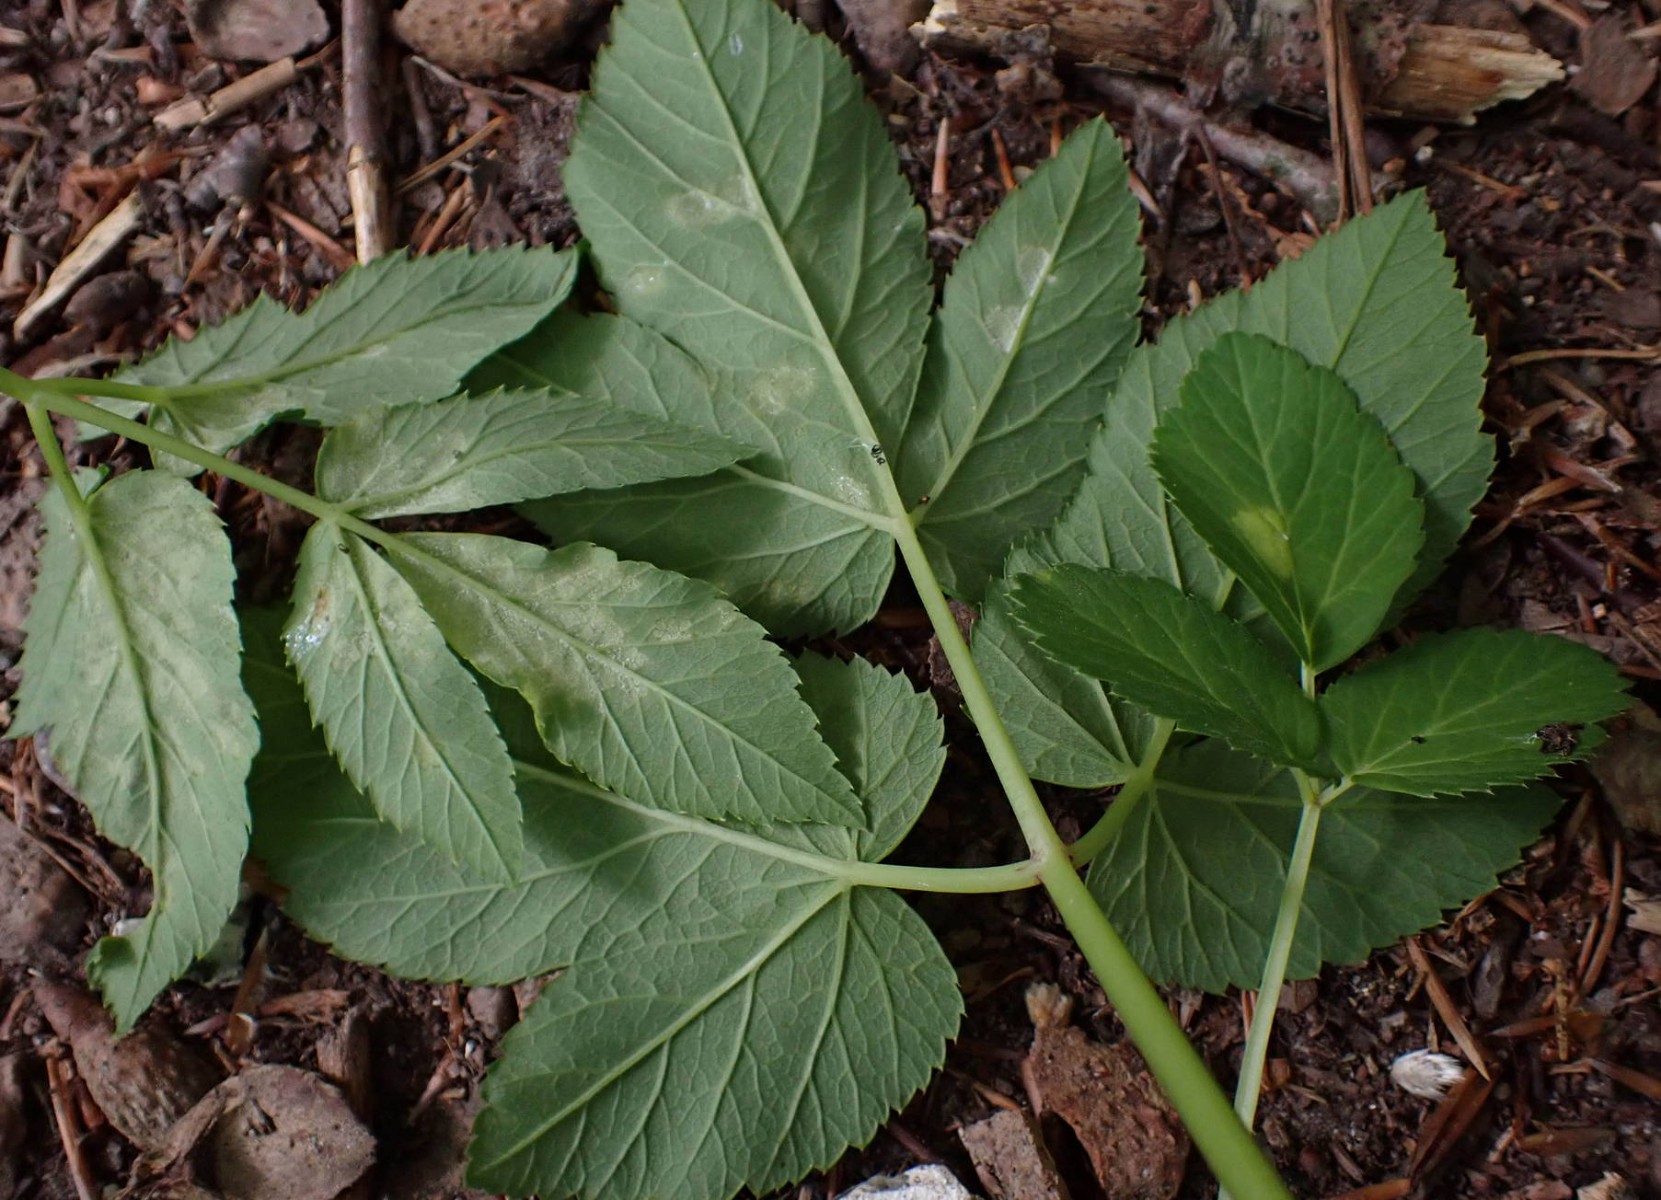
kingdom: Chromista
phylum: Oomycota
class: Peronosporea
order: Peronosporales
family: Peronosporaceae
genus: Peronospora
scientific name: Peronospora crustosa
